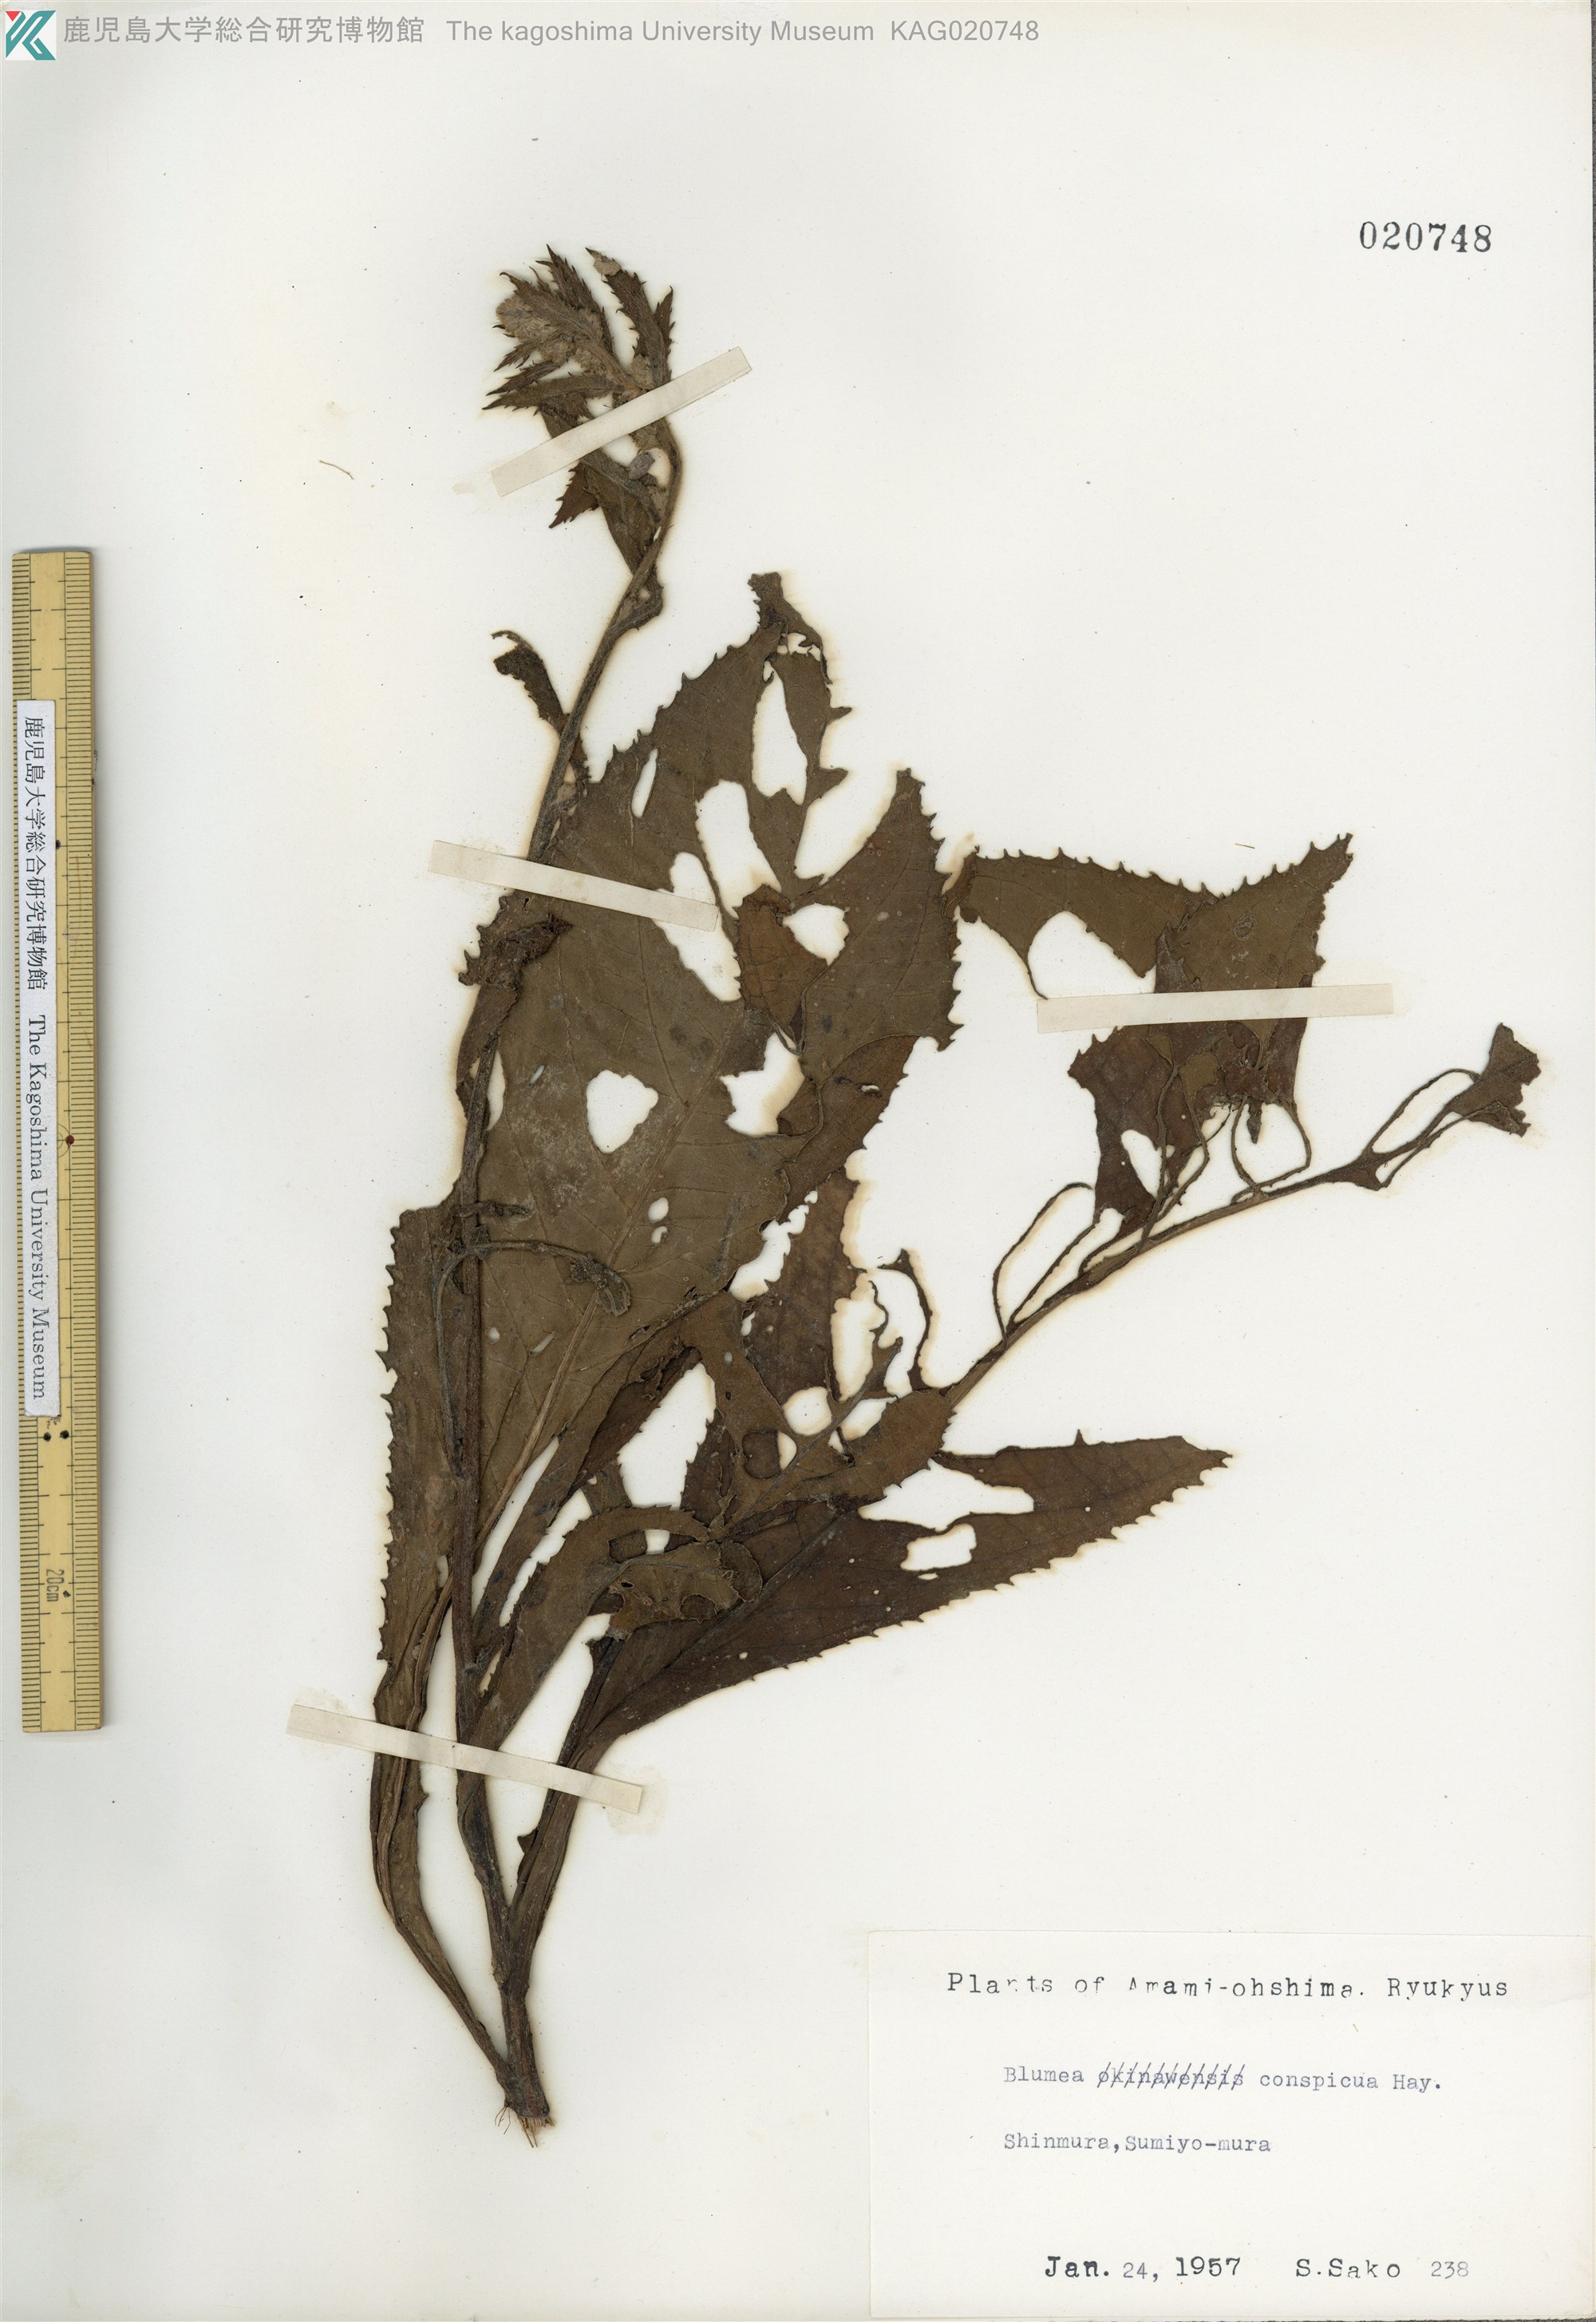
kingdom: Plantae
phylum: Tracheophyta
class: Magnoliopsida
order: Asterales
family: Asteraceae
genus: Blumea
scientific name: Blumea conspicua
